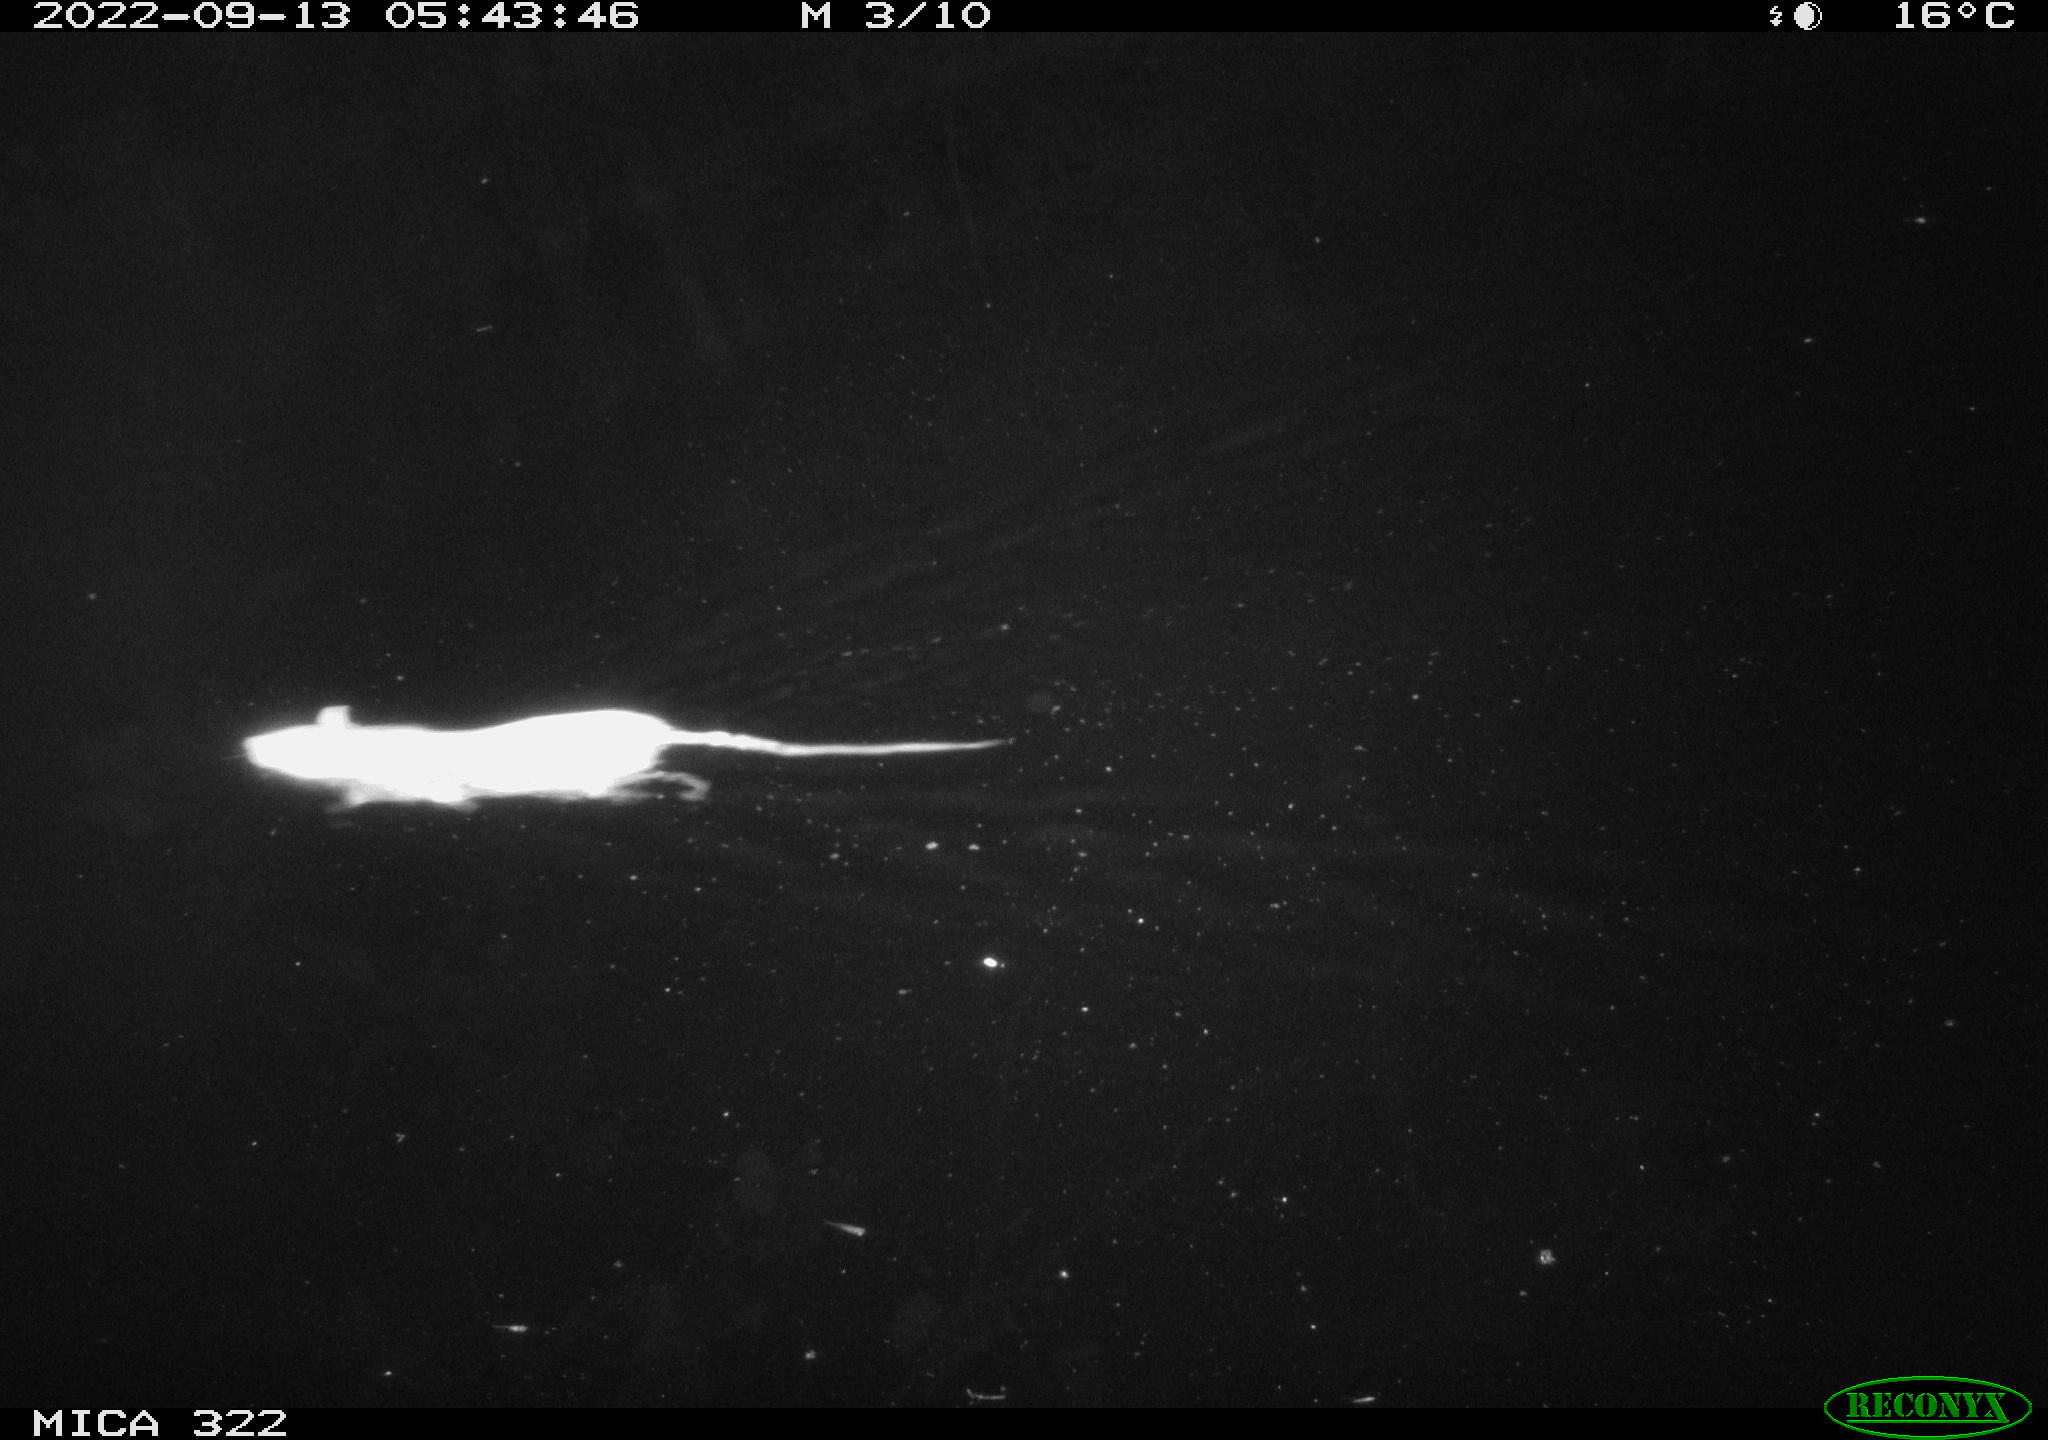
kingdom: Animalia
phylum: Chordata
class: Mammalia
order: Rodentia
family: Muridae
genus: Rattus
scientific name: Rattus norvegicus
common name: Brown rat
